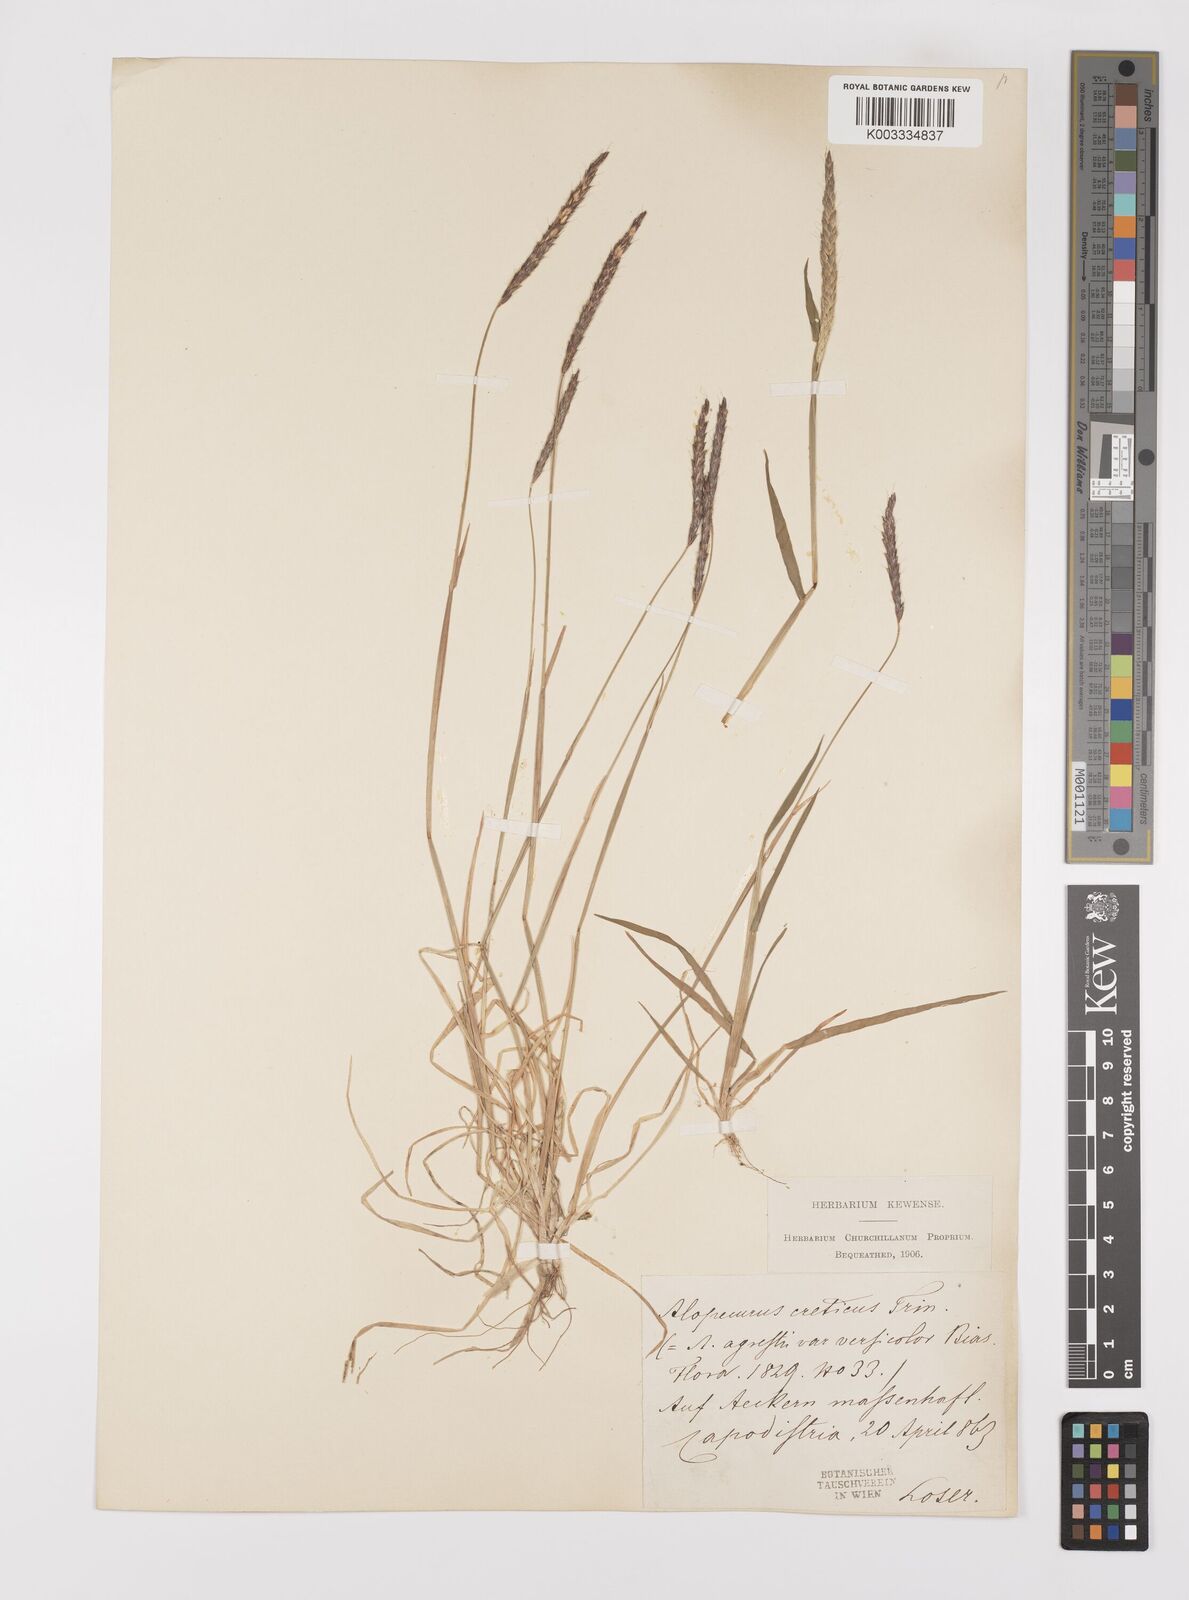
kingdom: Plantae
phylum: Tracheophyta
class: Liliopsida
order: Poales
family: Poaceae
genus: Alopecurus
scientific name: Alopecurus myosuroides
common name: Black-grass
